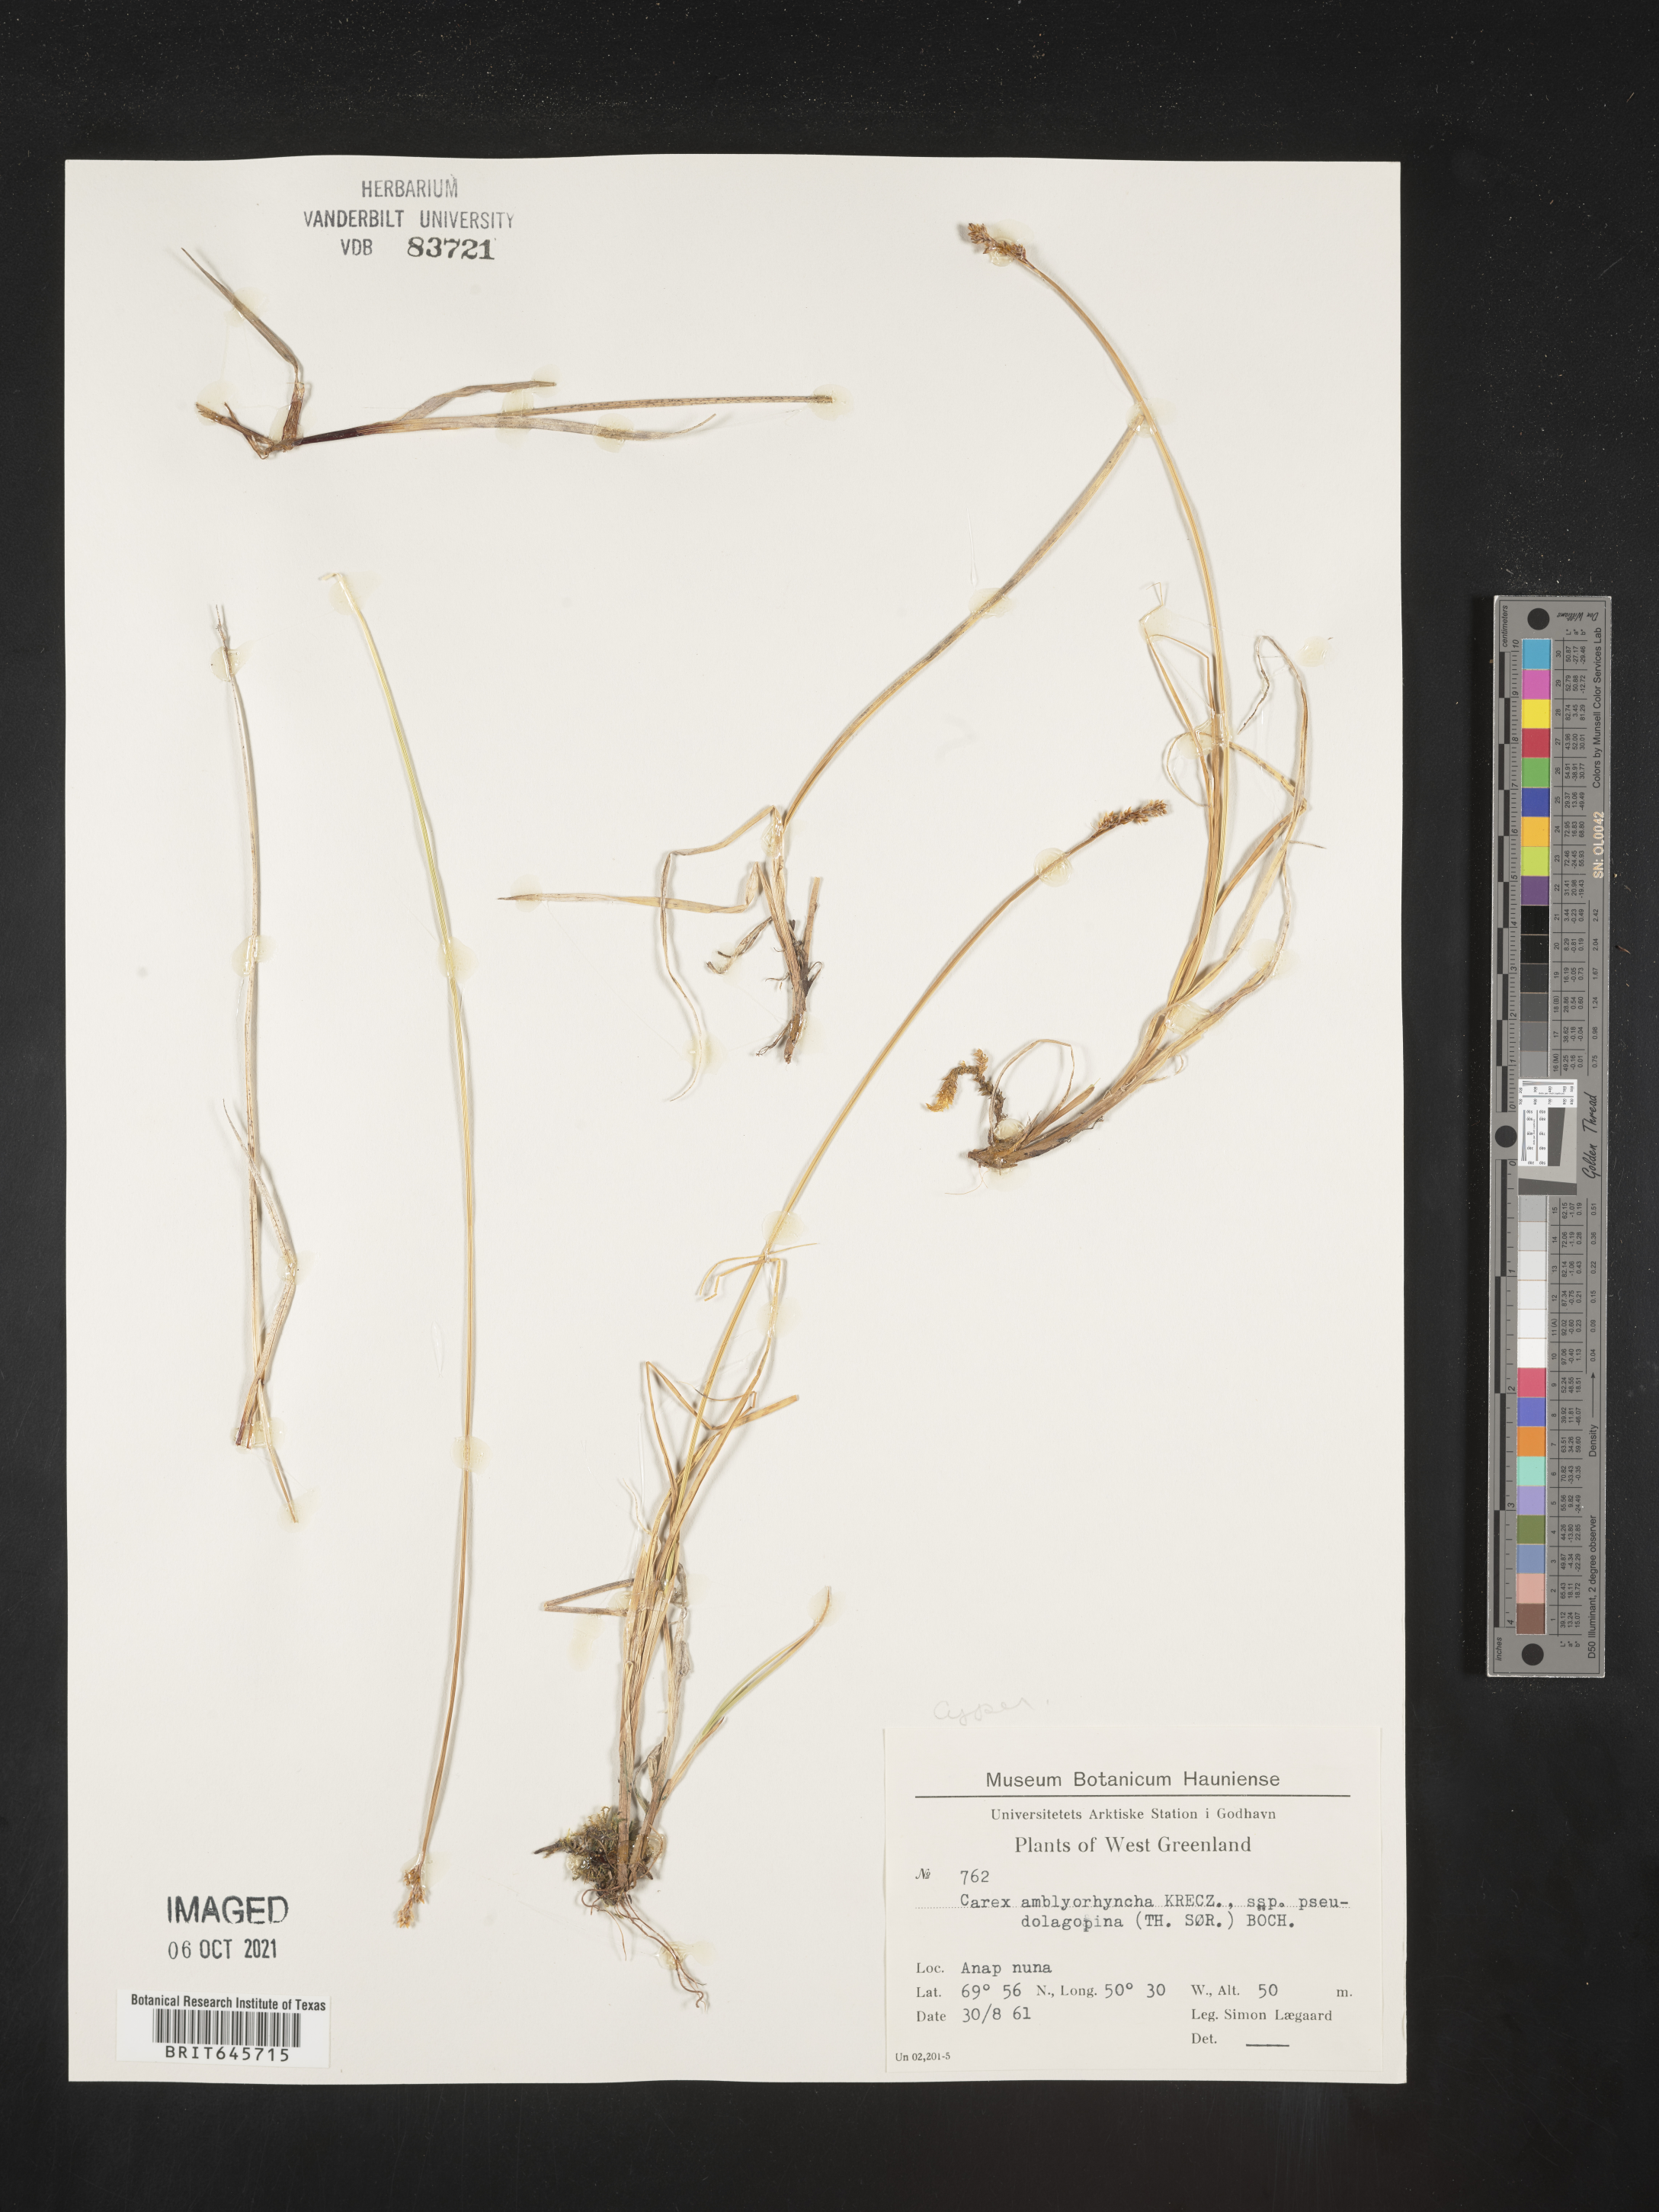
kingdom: Plantae
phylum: Tracheophyta
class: Liliopsida
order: Poales
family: Cyperaceae
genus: Carex
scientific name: Carex marina
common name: Seashore sedge
